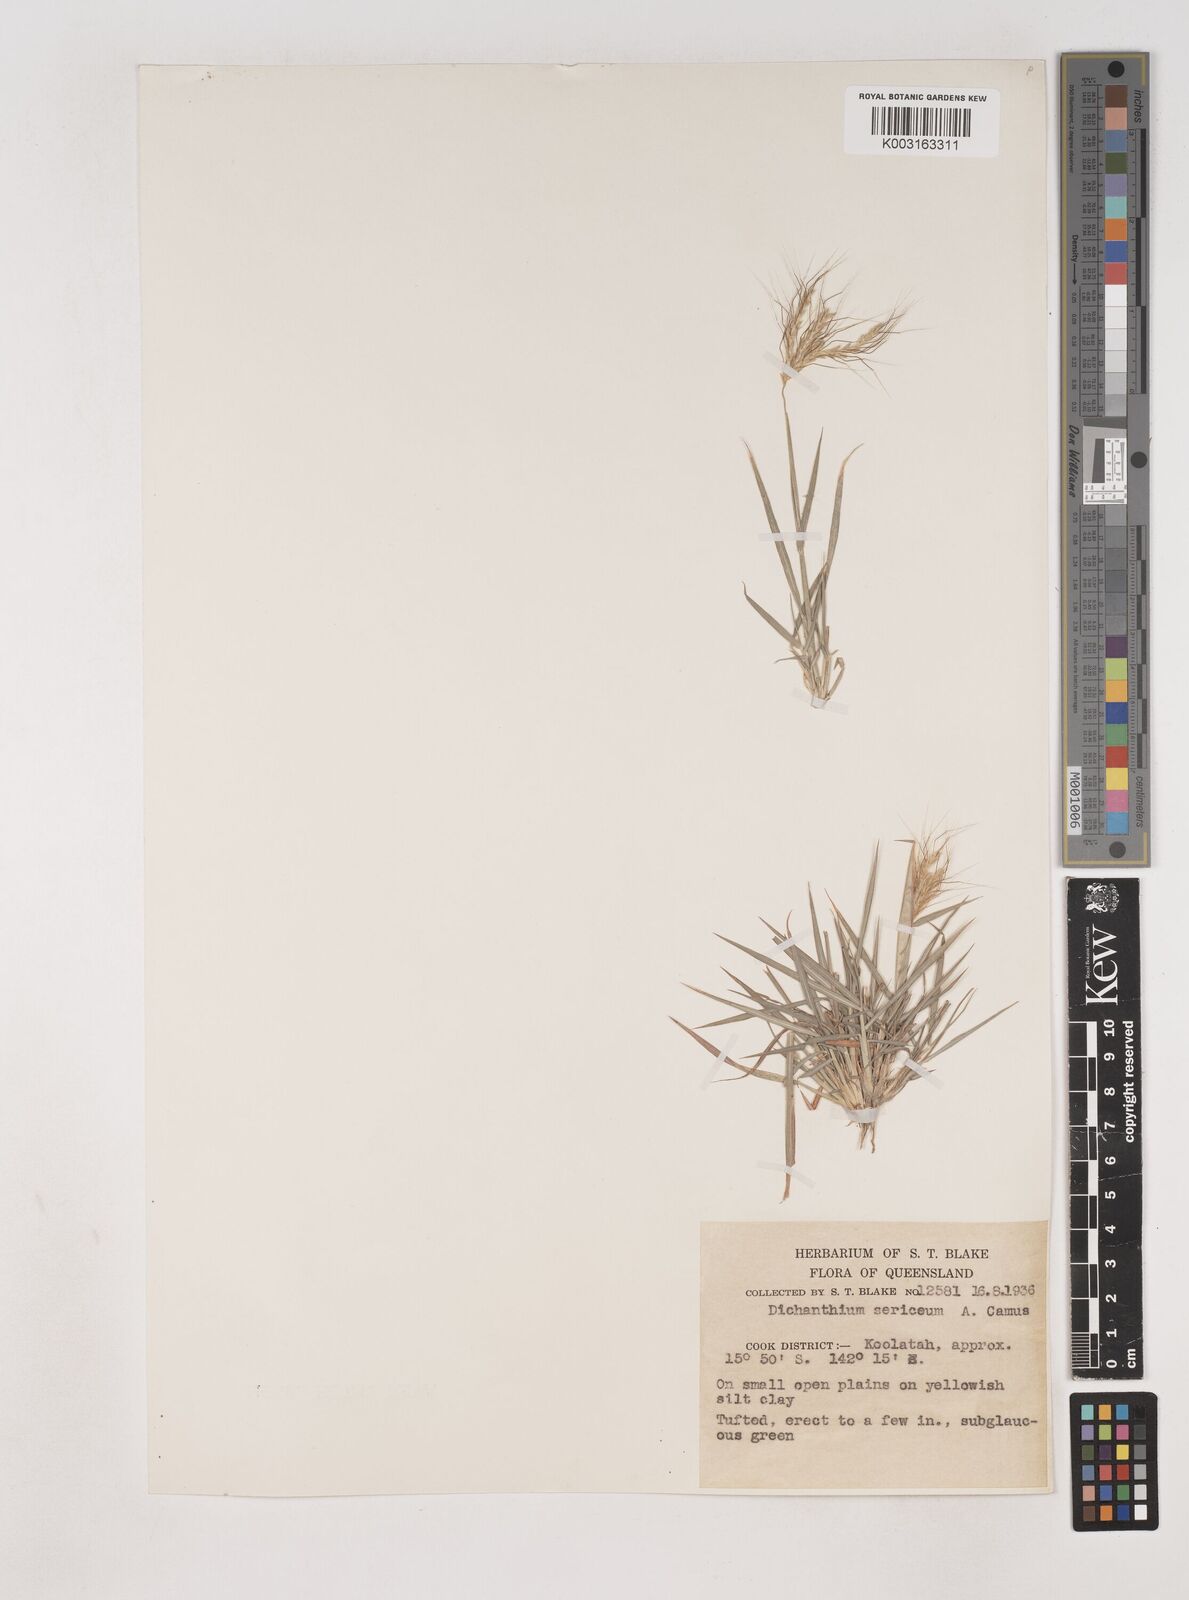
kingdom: Plantae
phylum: Tracheophyta
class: Liliopsida
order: Poales
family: Poaceae
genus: Dichanthium
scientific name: Dichanthium sericeum
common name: Silky bluestem
